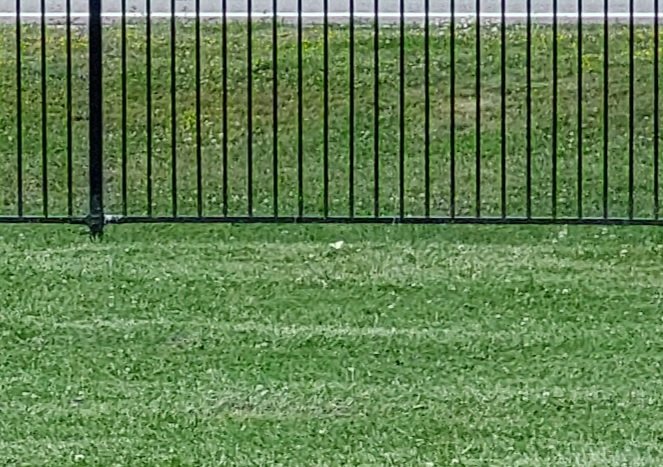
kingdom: Animalia
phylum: Arthropoda
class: Insecta
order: Lepidoptera
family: Pieridae
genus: Colias
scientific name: Colias philodice
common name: Clouded Sulphur
